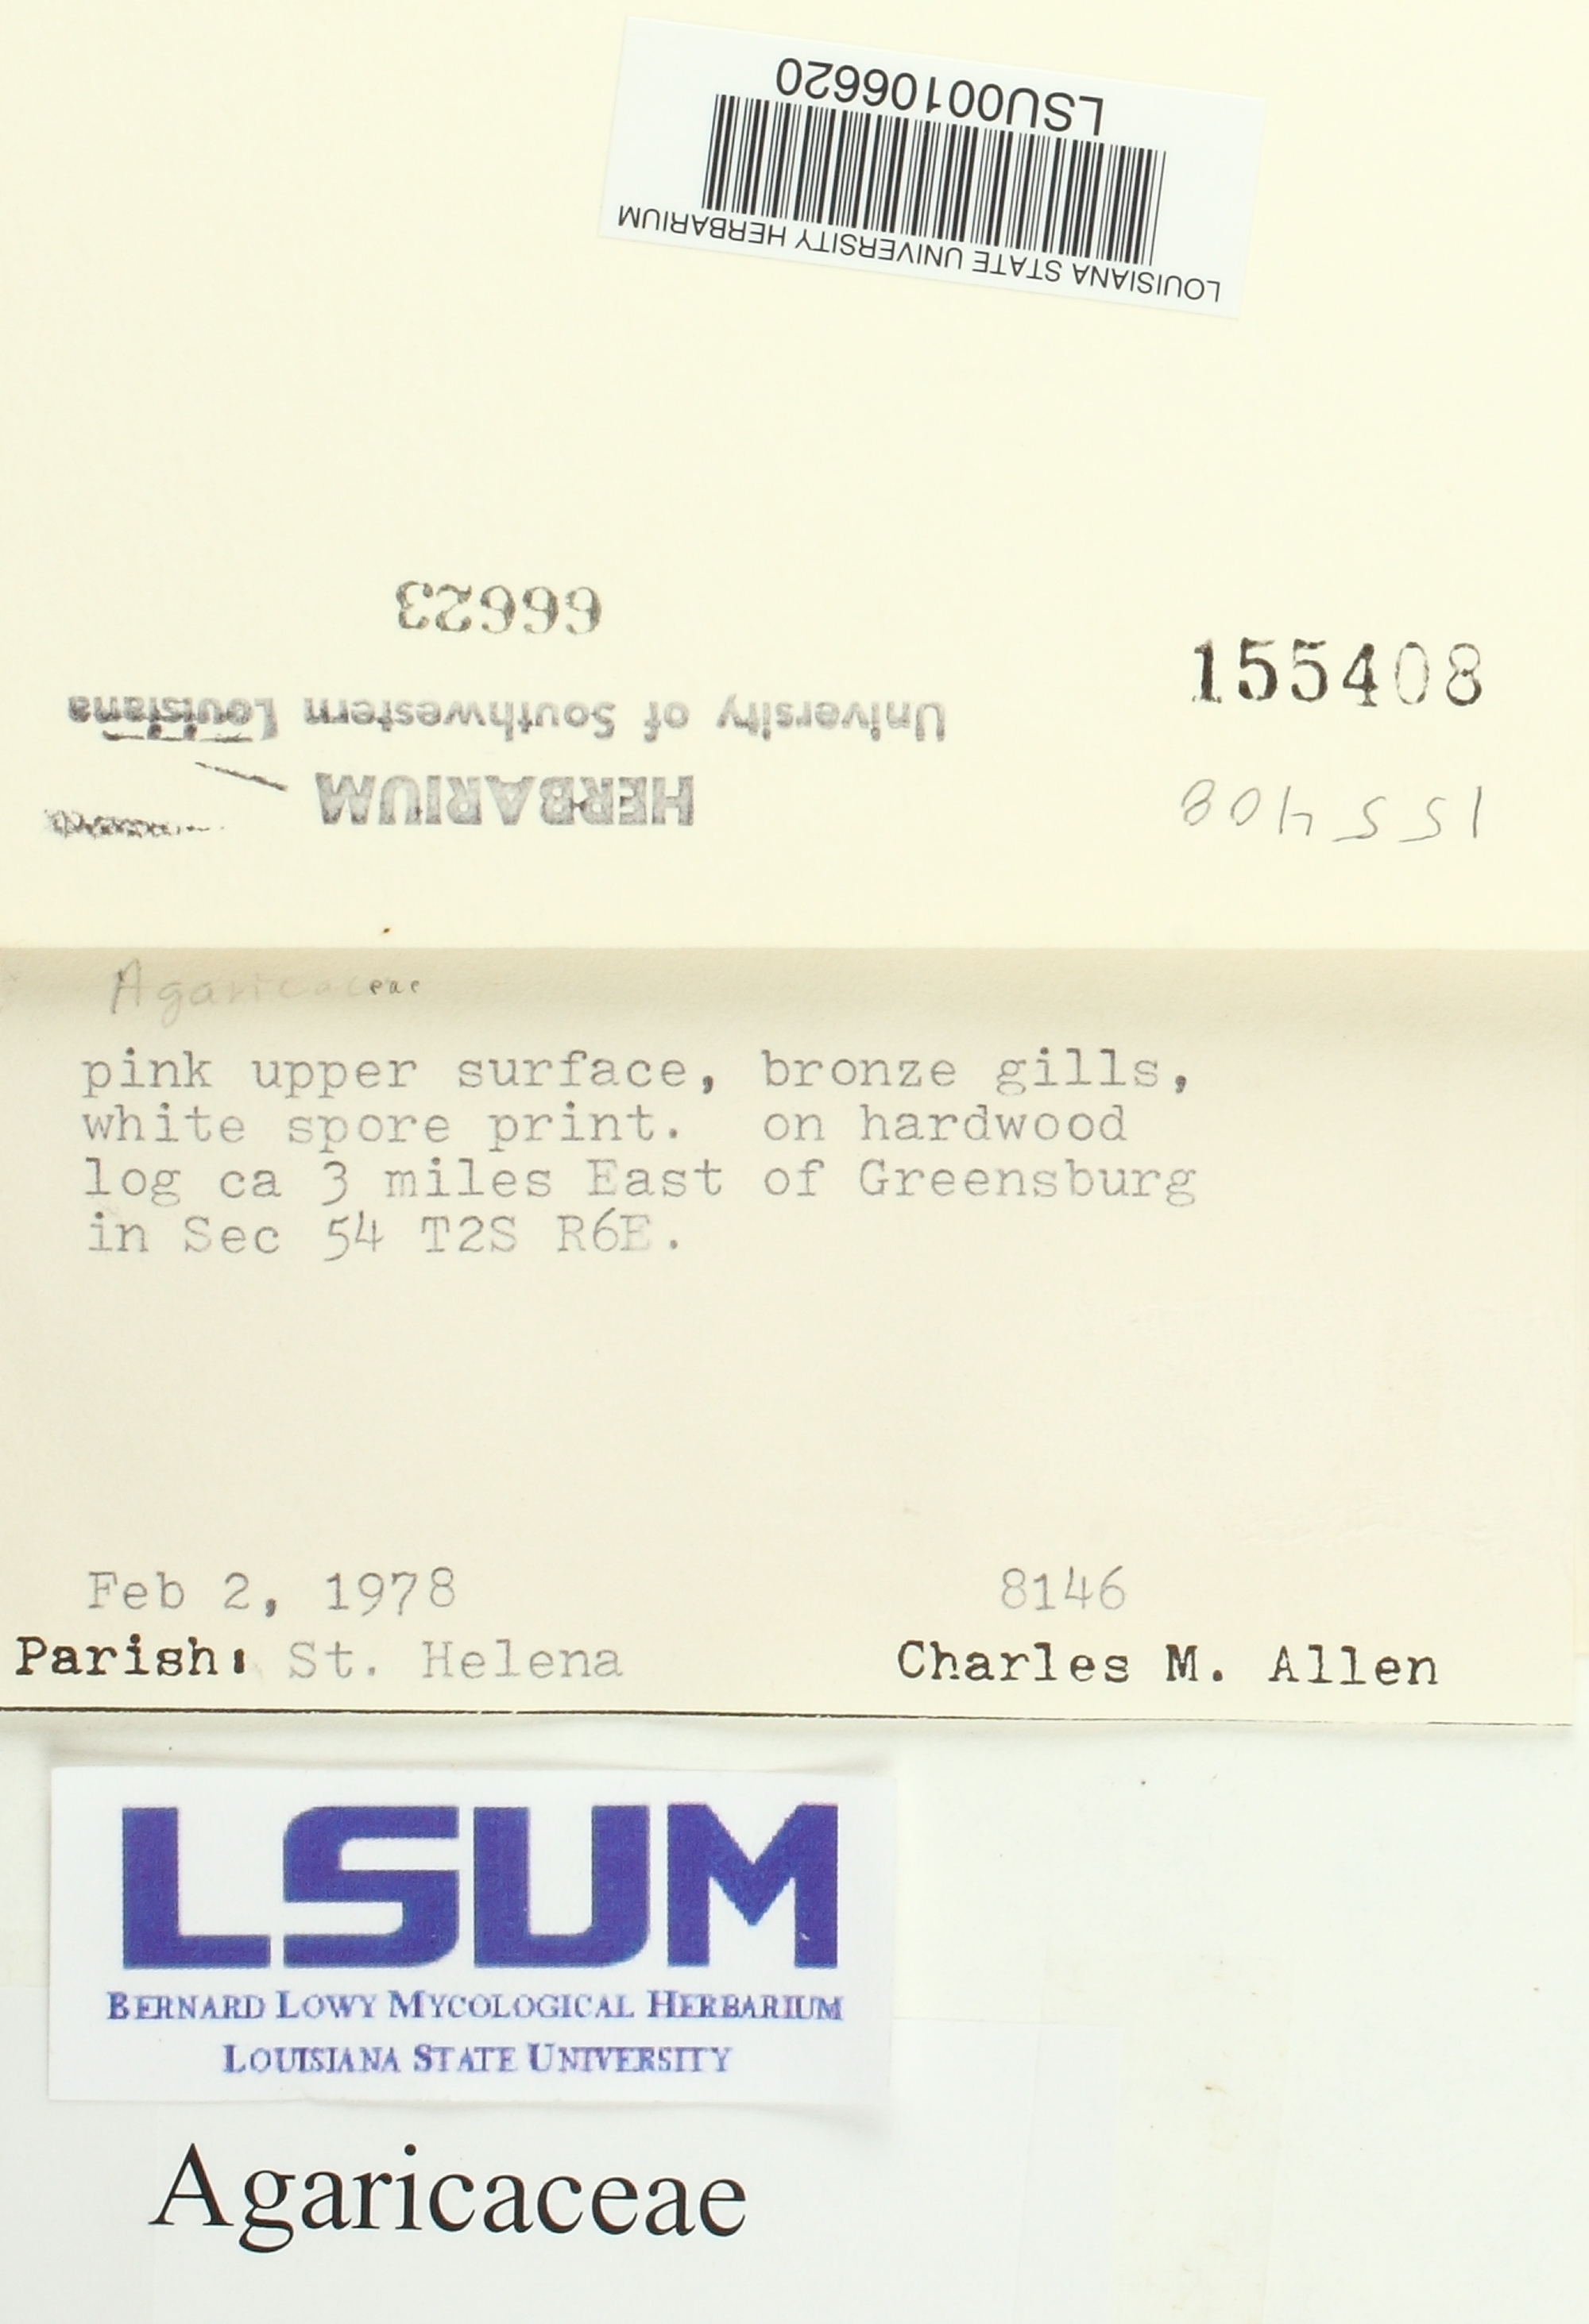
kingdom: Fungi
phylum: Basidiomycota
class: Agaricomycetes
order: Agaricales
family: Agaricaceae
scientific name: Agaricaceae
